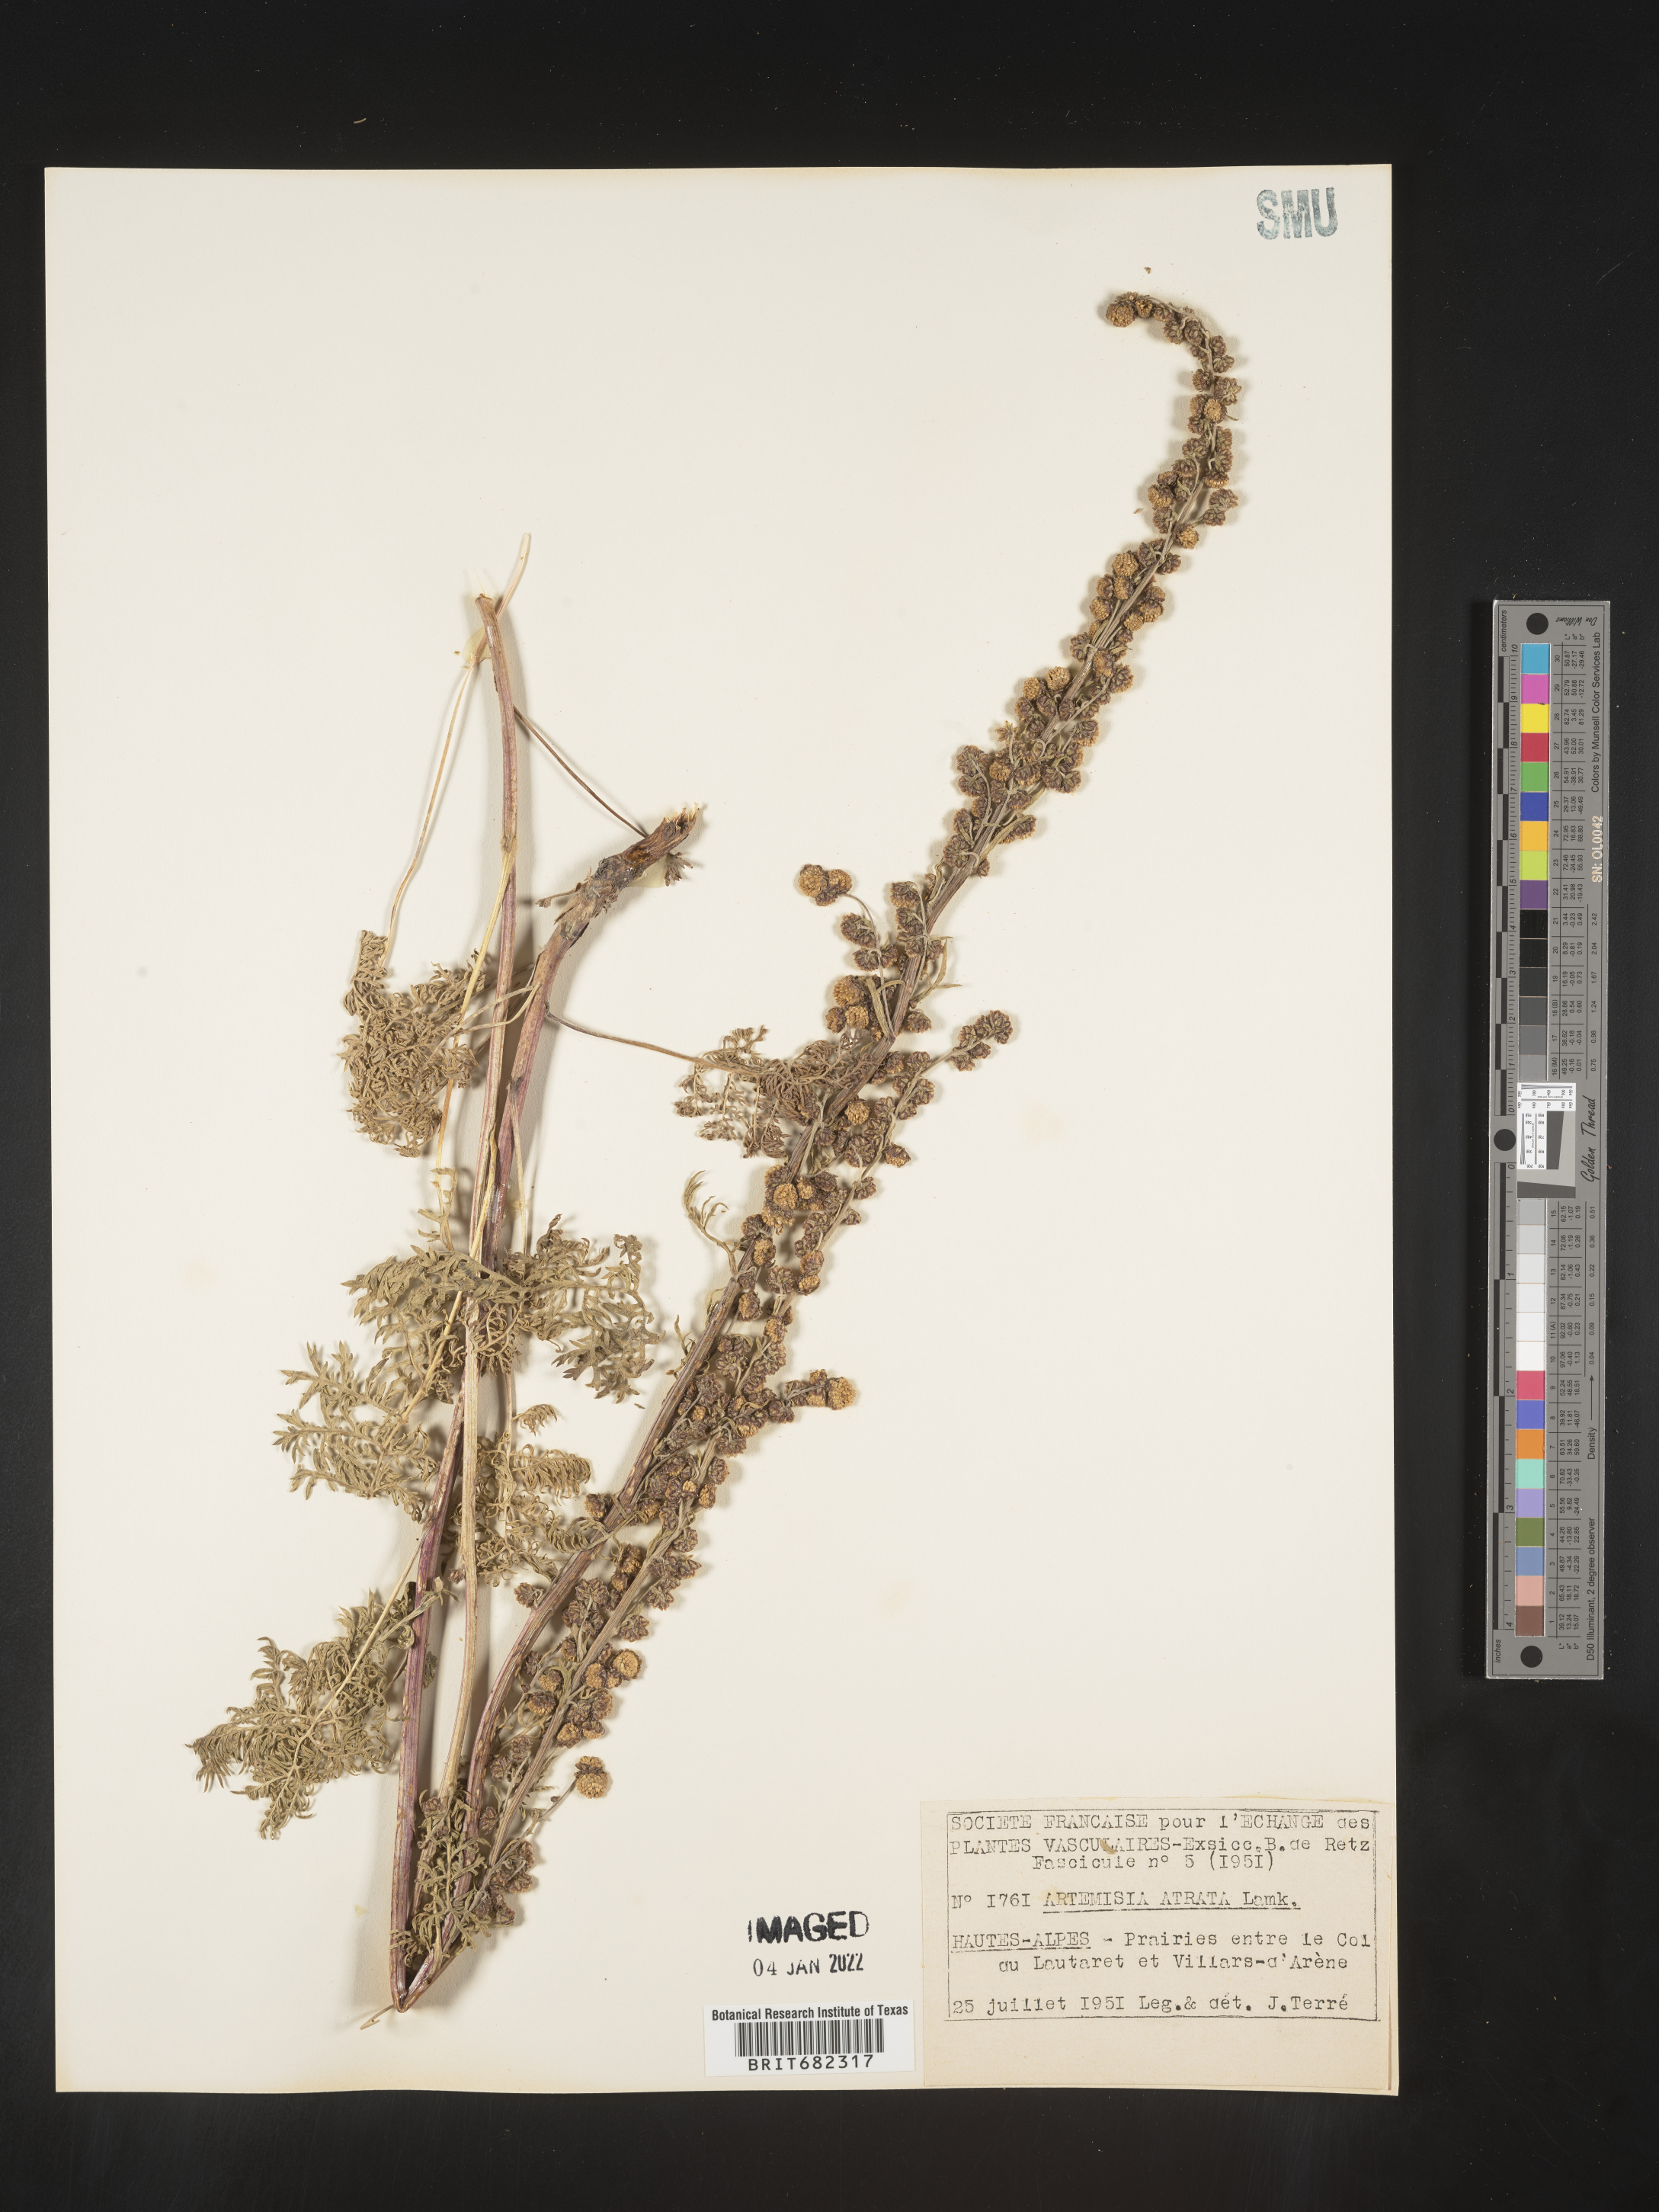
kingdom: Plantae
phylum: Tracheophyta
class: Magnoliopsida
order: Asterales
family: Asteraceae
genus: Artemisia
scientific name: Artemisia
